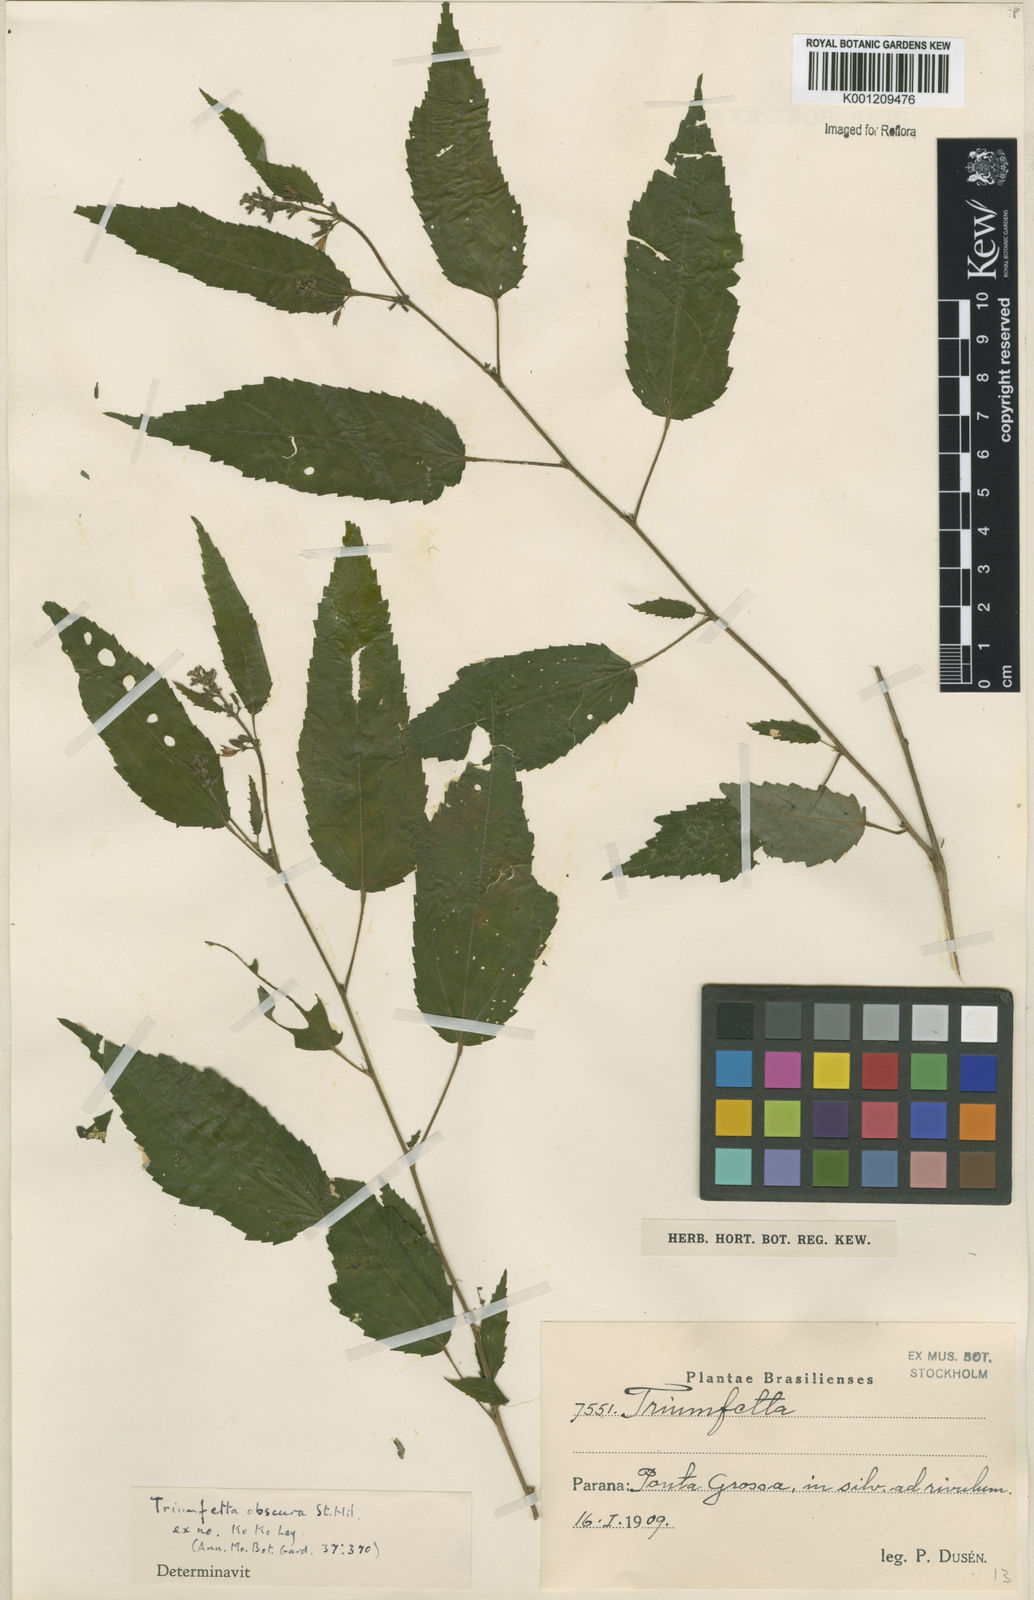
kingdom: Plantae
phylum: Tracheophyta
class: Magnoliopsida
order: Malvales
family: Malvaceae
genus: Triumfetta
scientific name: Triumfetta obscura
